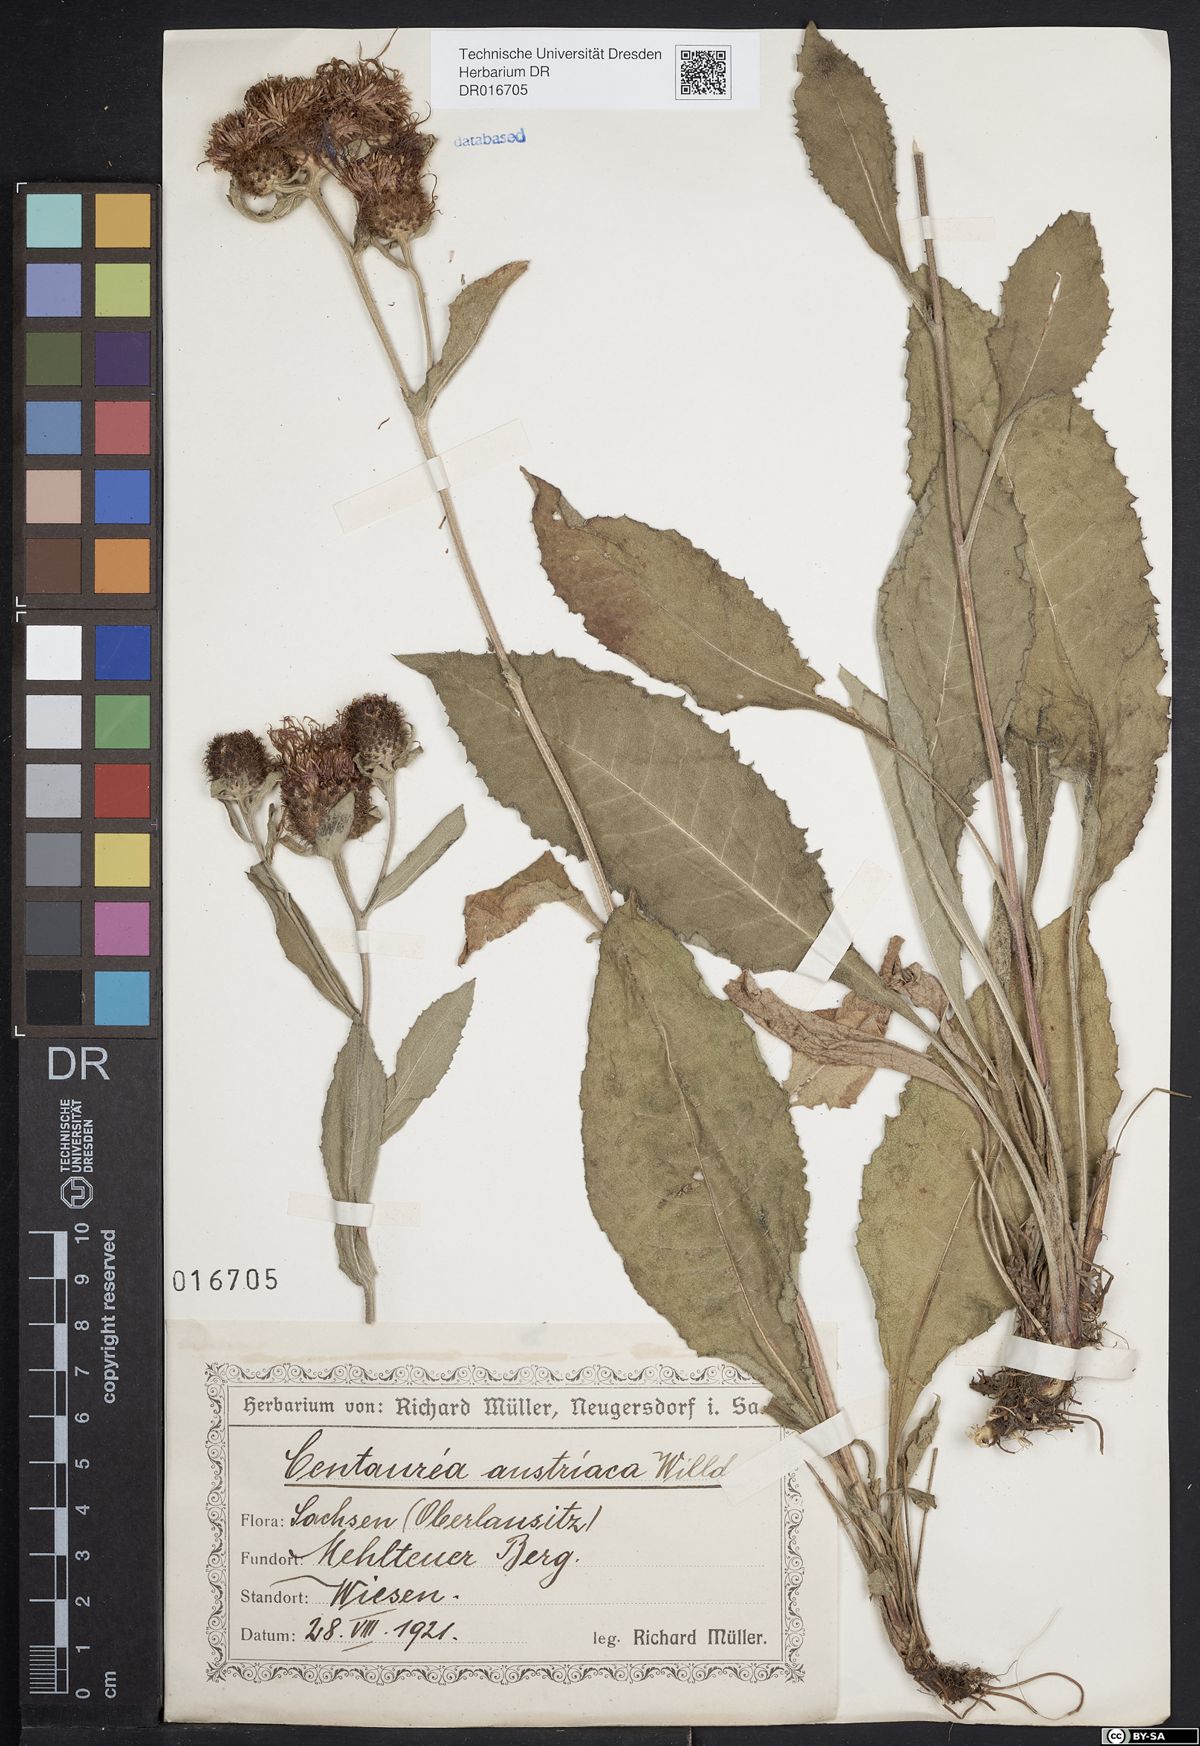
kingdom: Plantae
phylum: Tracheophyta
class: Magnoliopsida
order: Asterales
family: Asteraceae
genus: Centaurea
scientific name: Centaurea phrygia
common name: Wig knapweed
